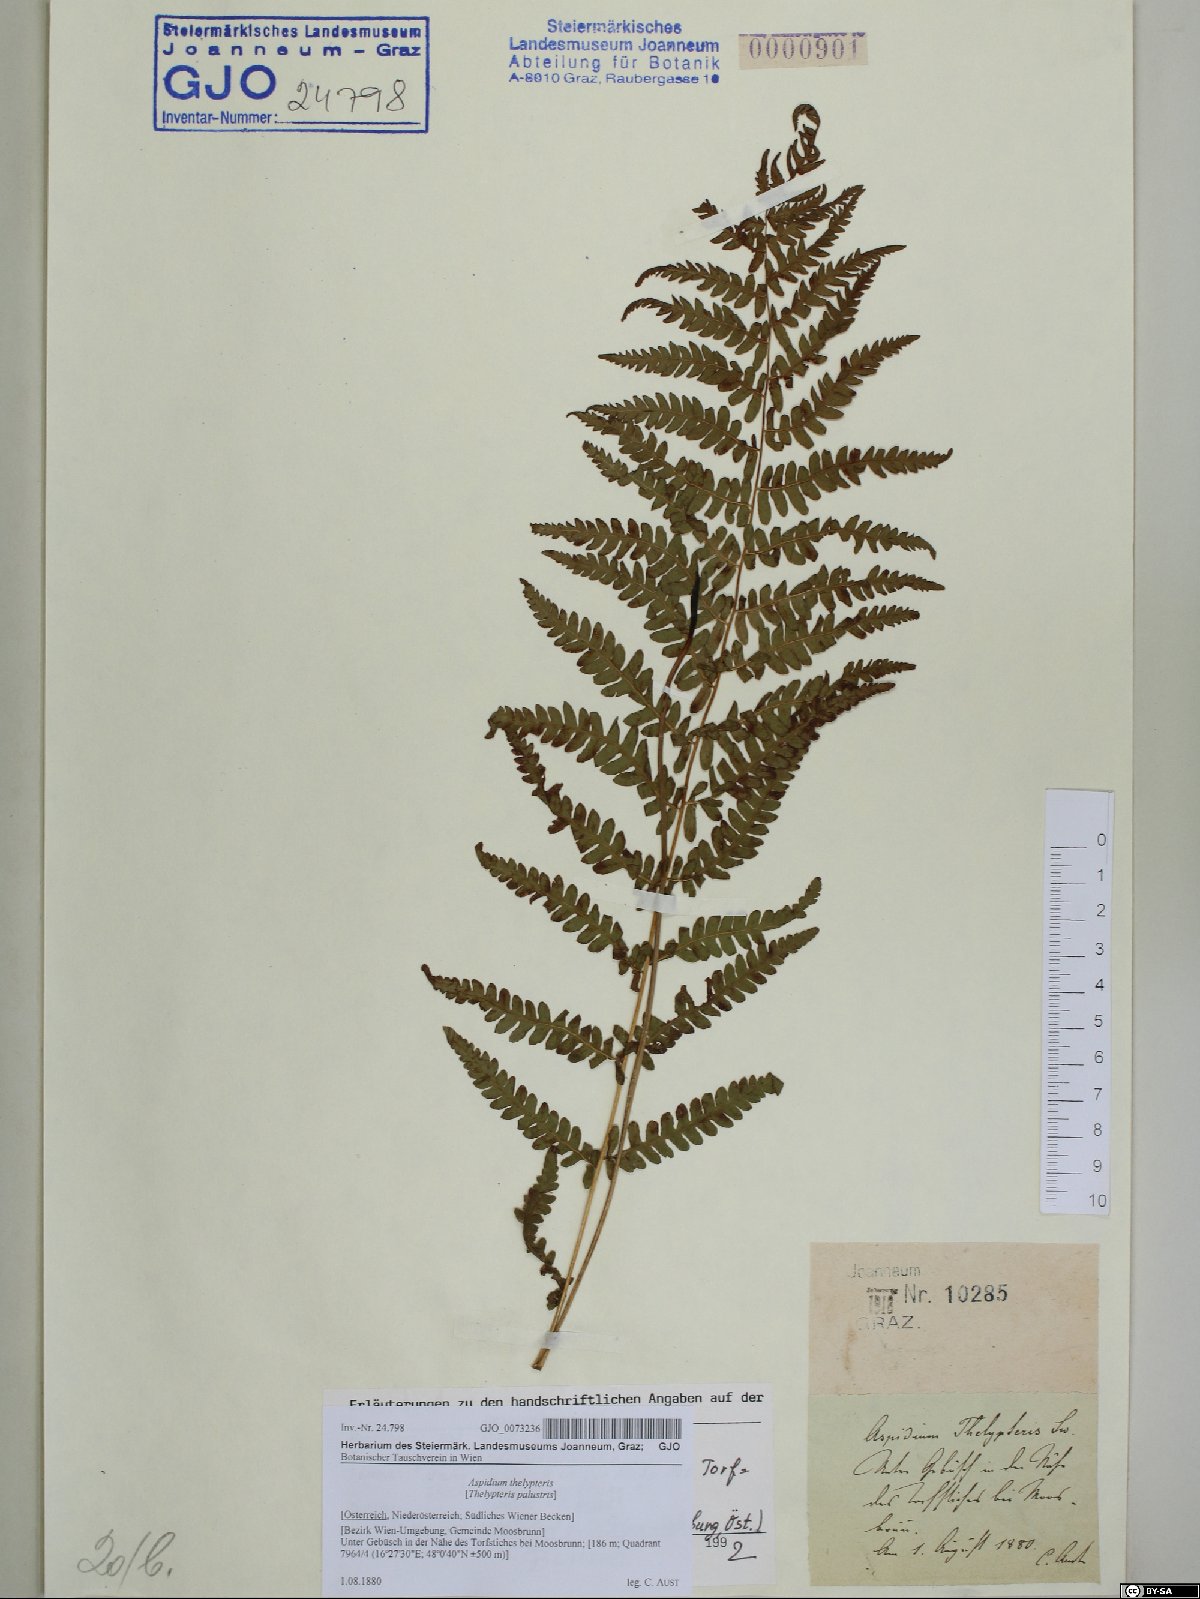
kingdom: Plantae
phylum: Tracheophyta
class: Polypodiopsida
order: Polypodiales
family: Thelypteridaceae
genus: Thelypteris
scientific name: Thelypteris palustris
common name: Marsh fern
